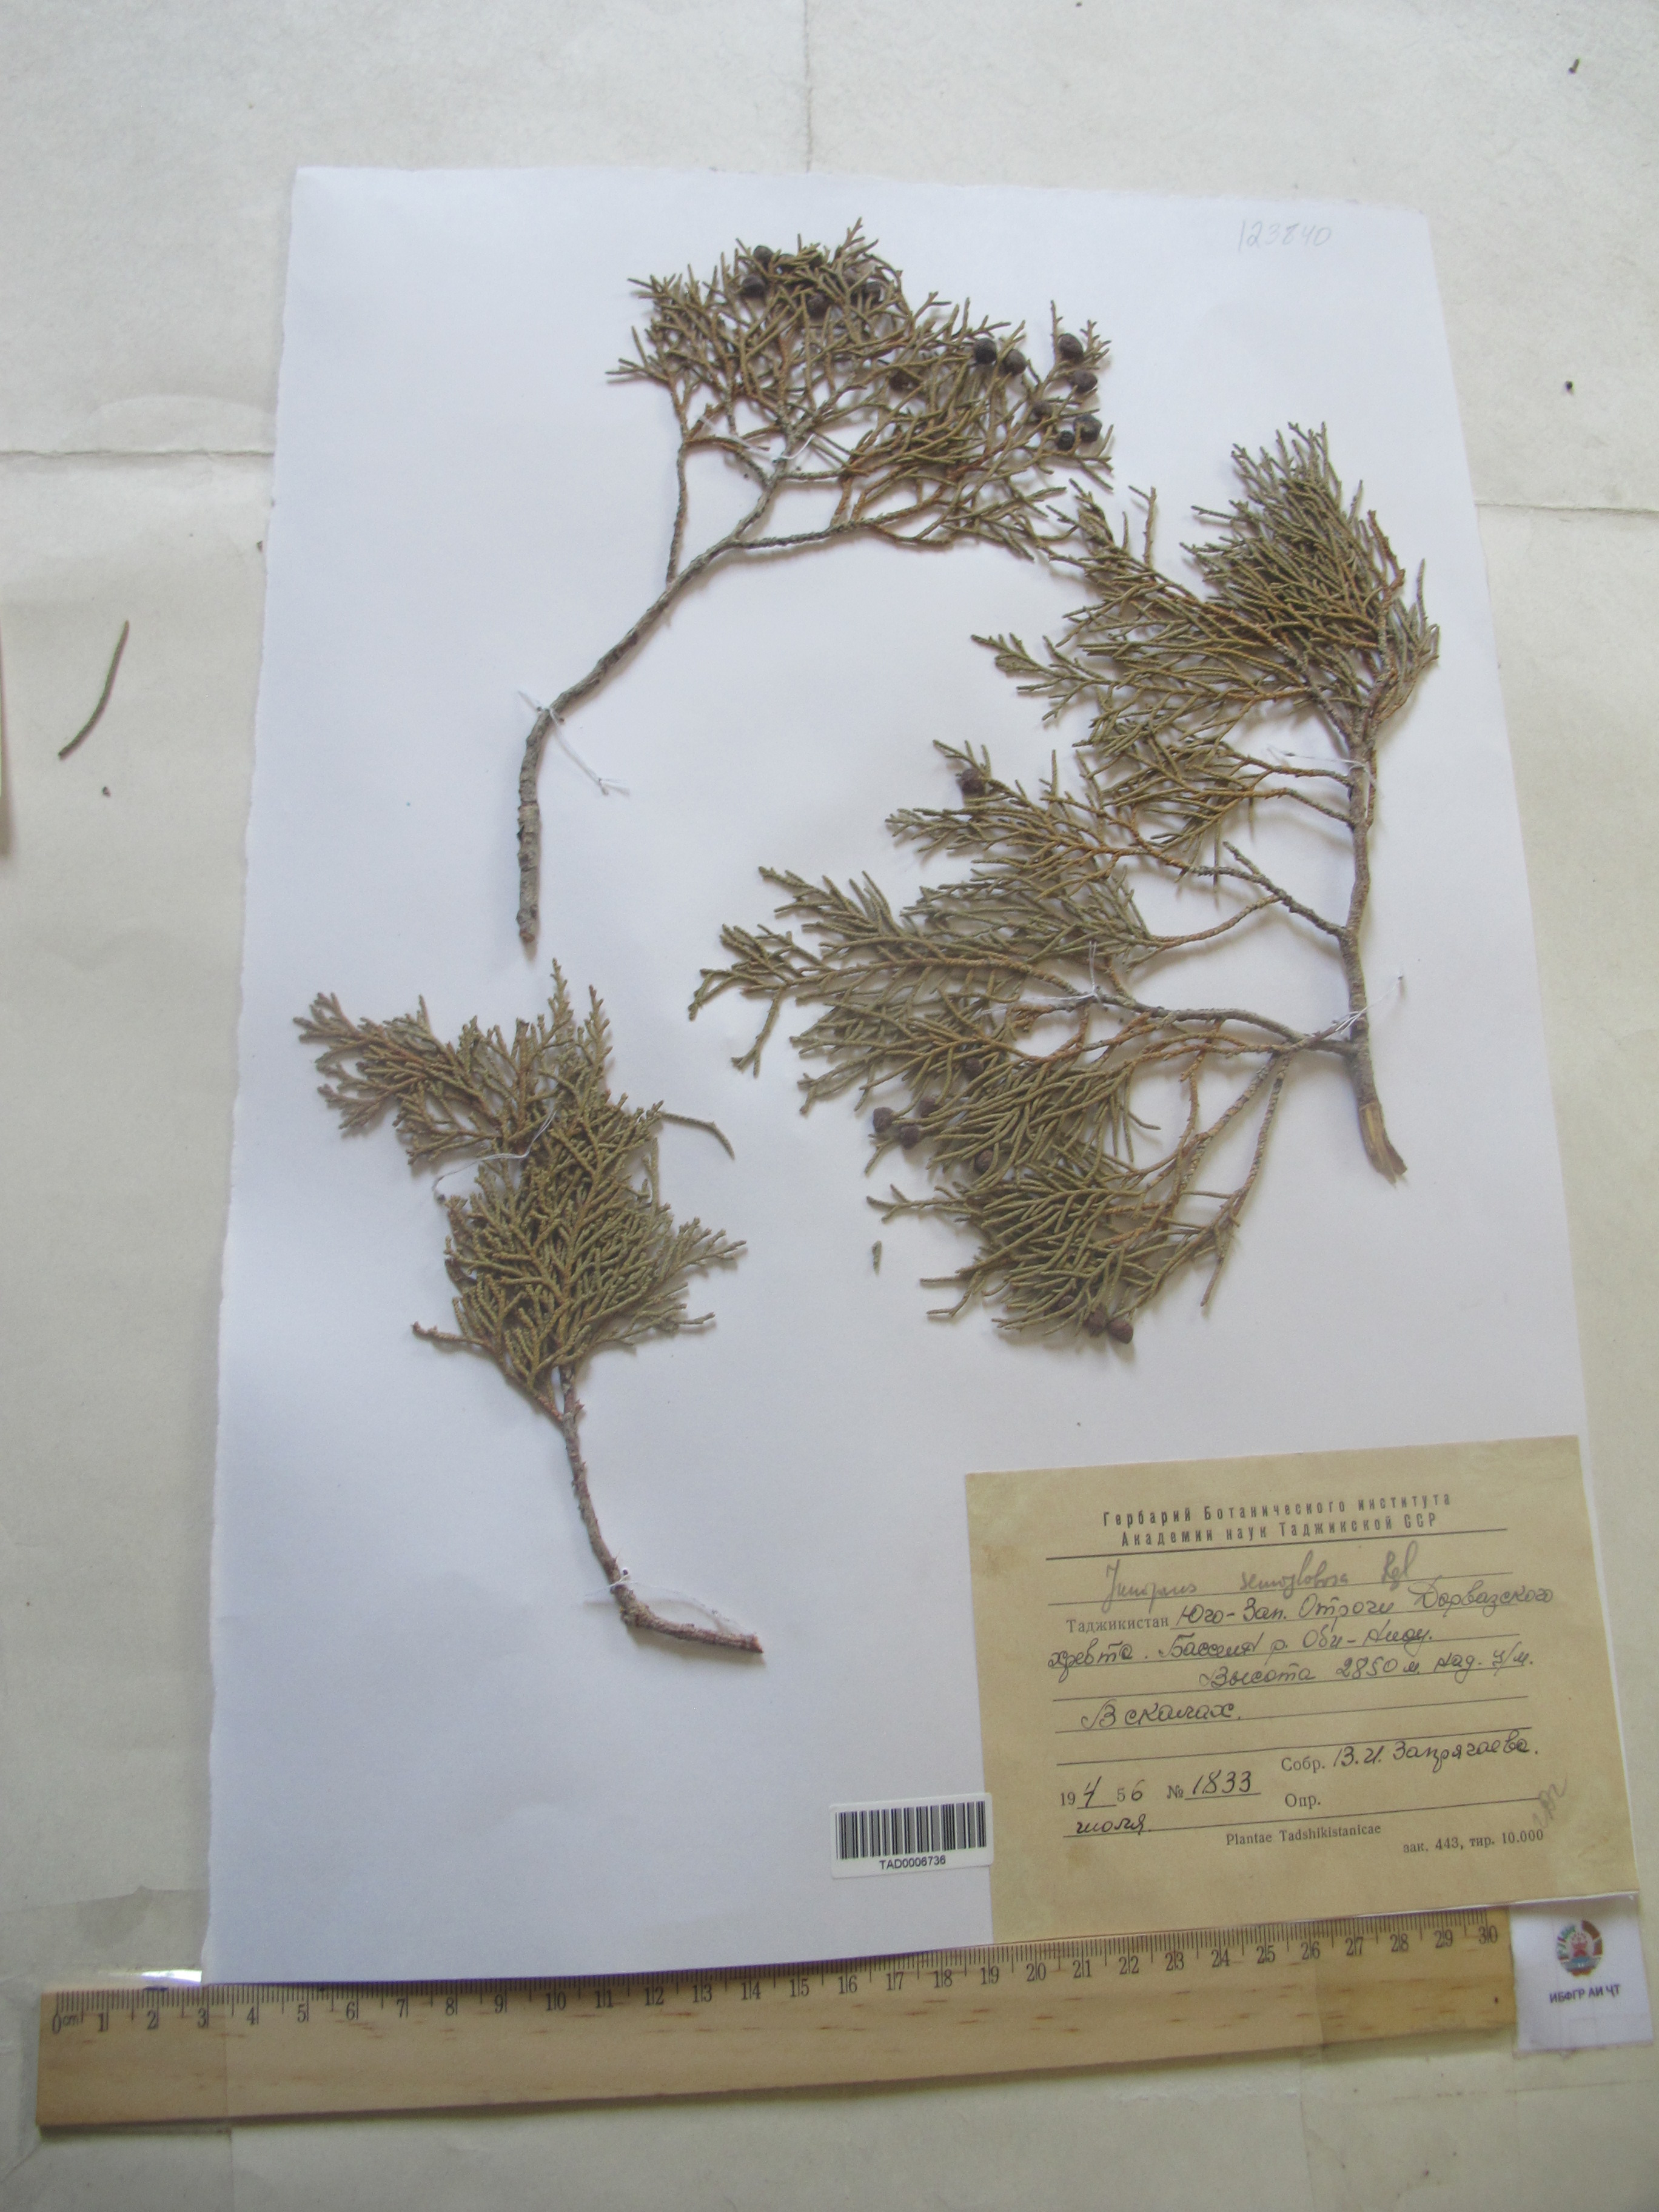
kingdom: Plantae
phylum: Tracheophyta
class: Pinopsida
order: Pinales
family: Cupressaceae
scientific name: Cupressaceae
